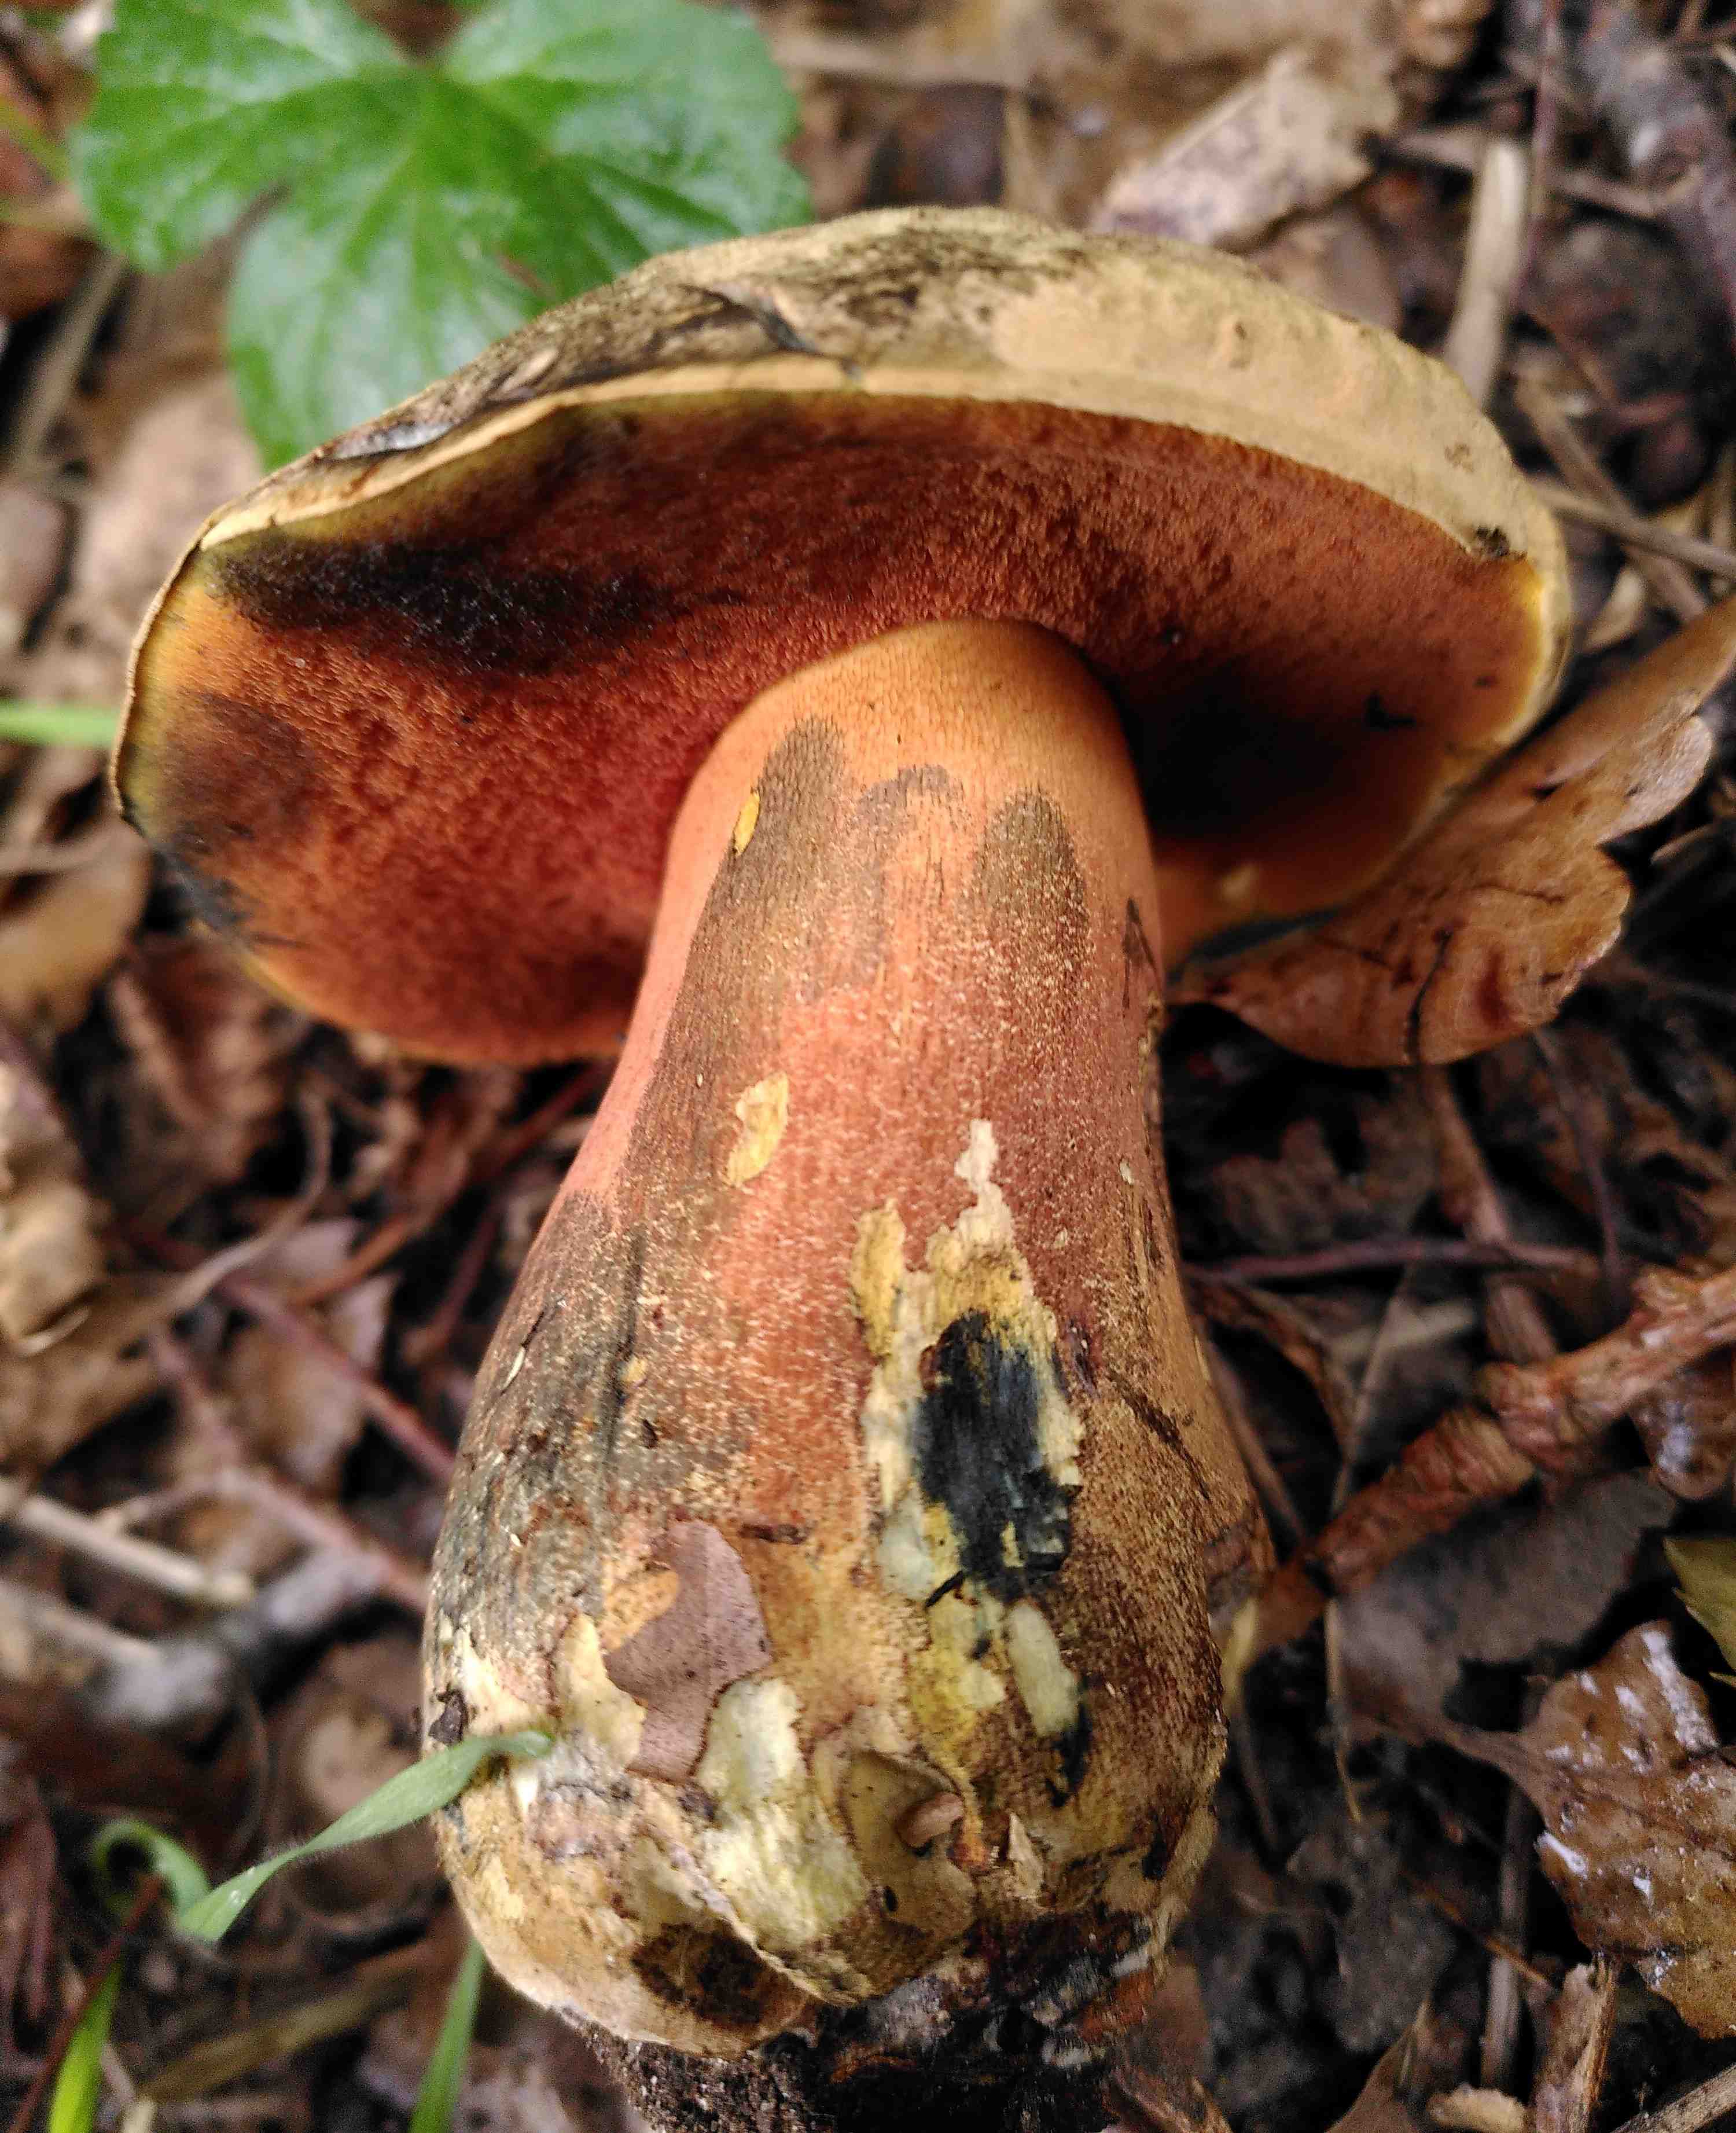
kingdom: Fungi
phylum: Basidiomycota
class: Agaricomycetes
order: Boletales
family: Boletaceae
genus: Suillellus
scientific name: Suillellus luridus
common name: netstokket indigorørhat
